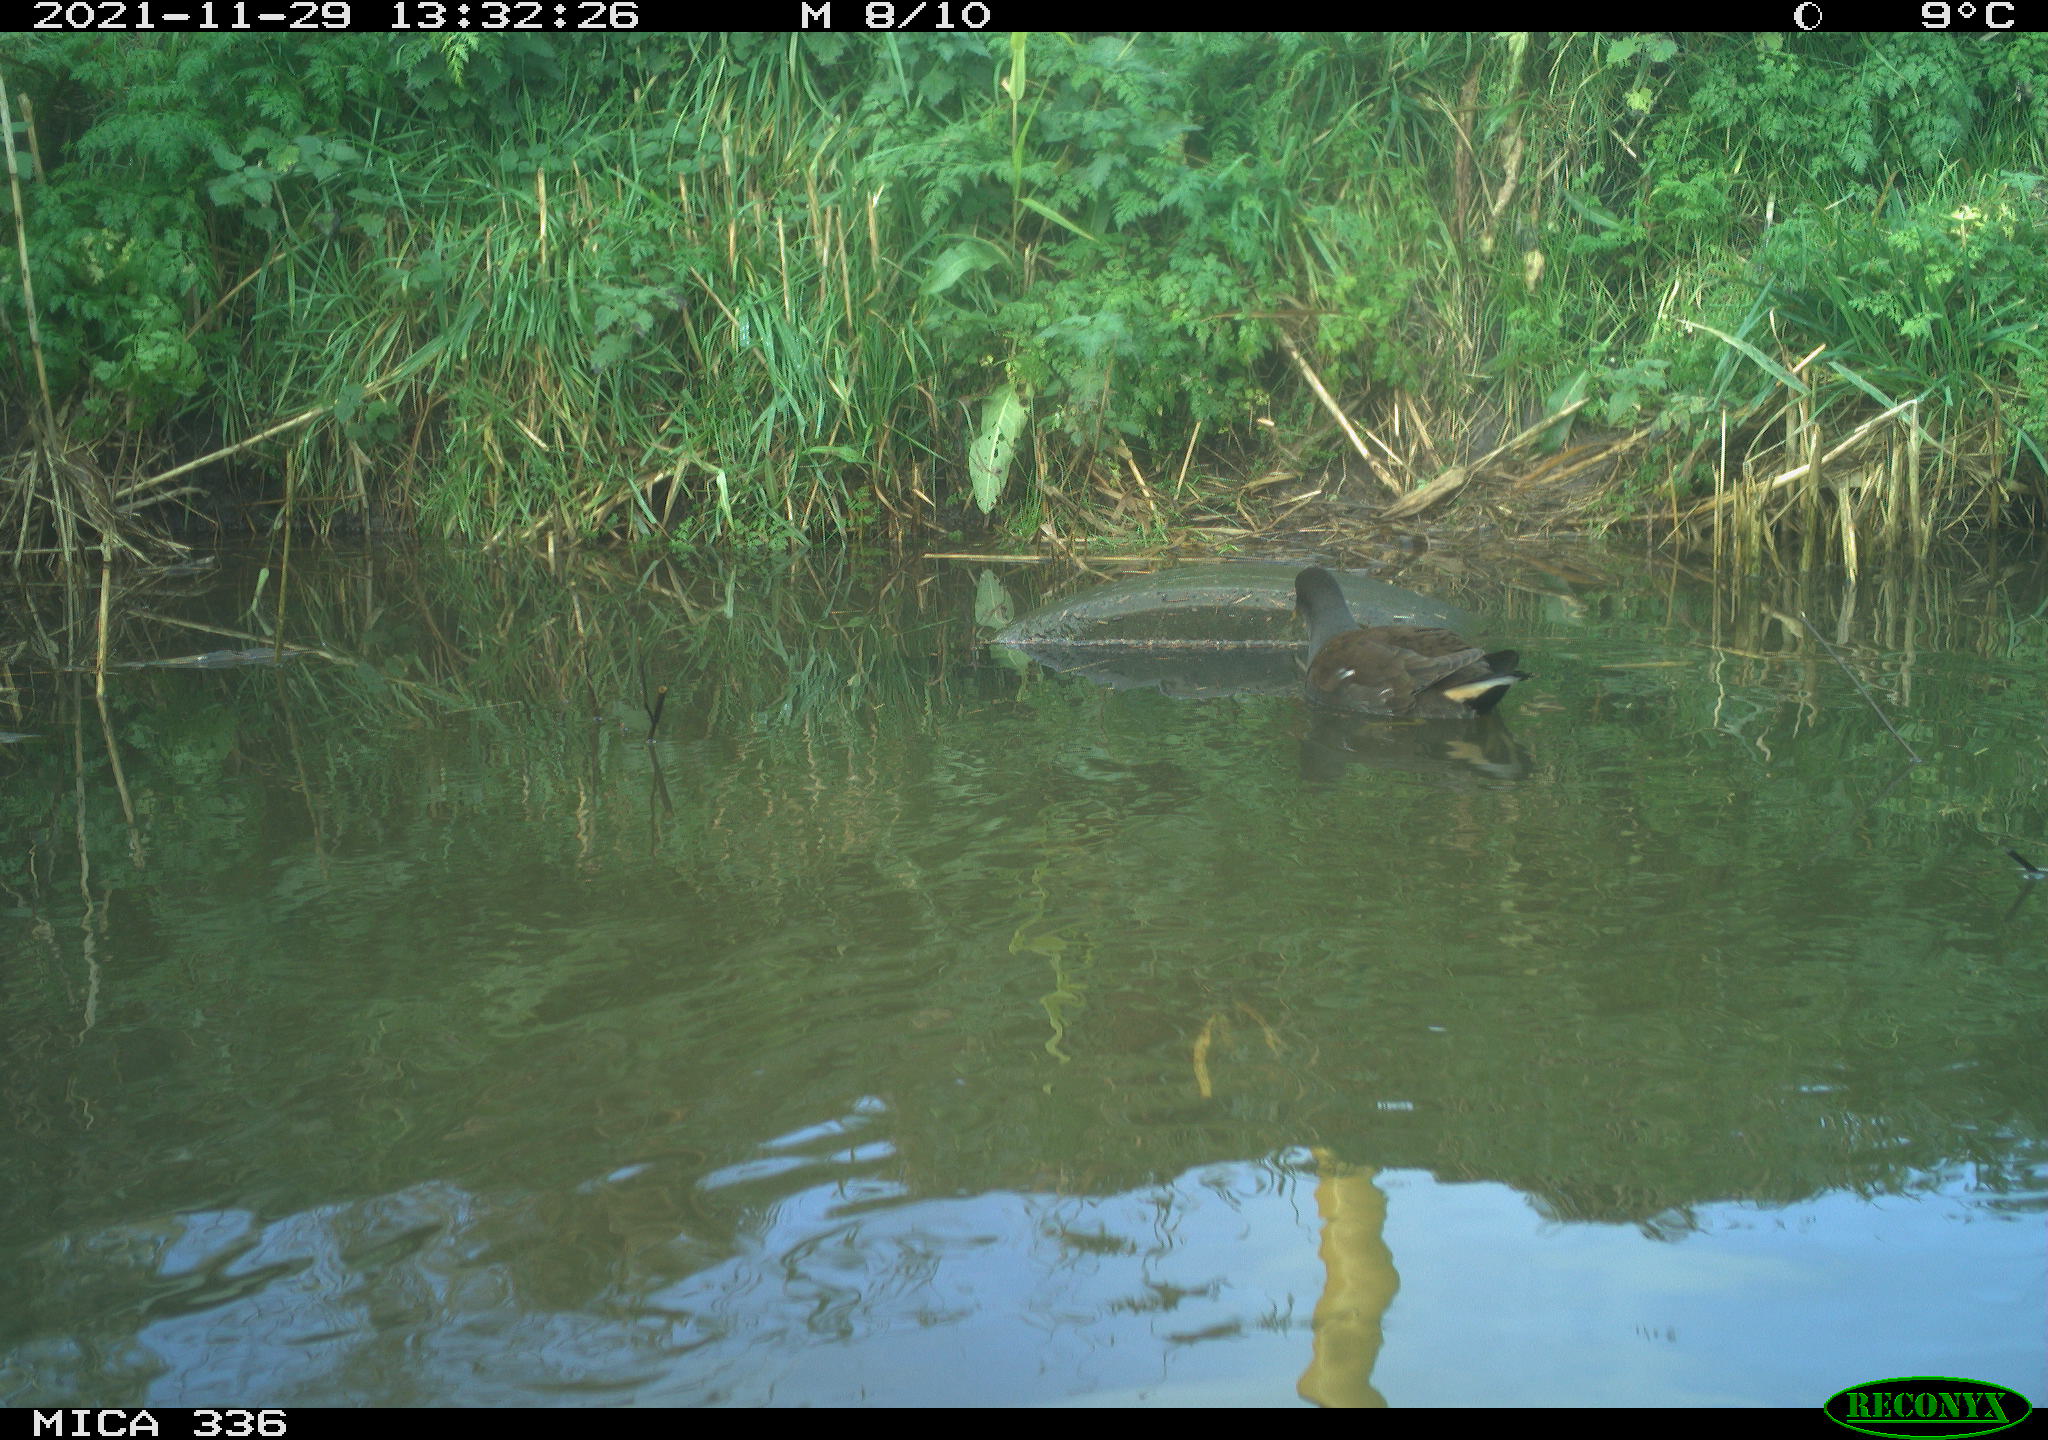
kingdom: Animalia
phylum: Chordata
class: Aves
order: Gruiformes
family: Rallidae
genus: Gallinula
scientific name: Gallinula chloropus
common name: Common moorhen
